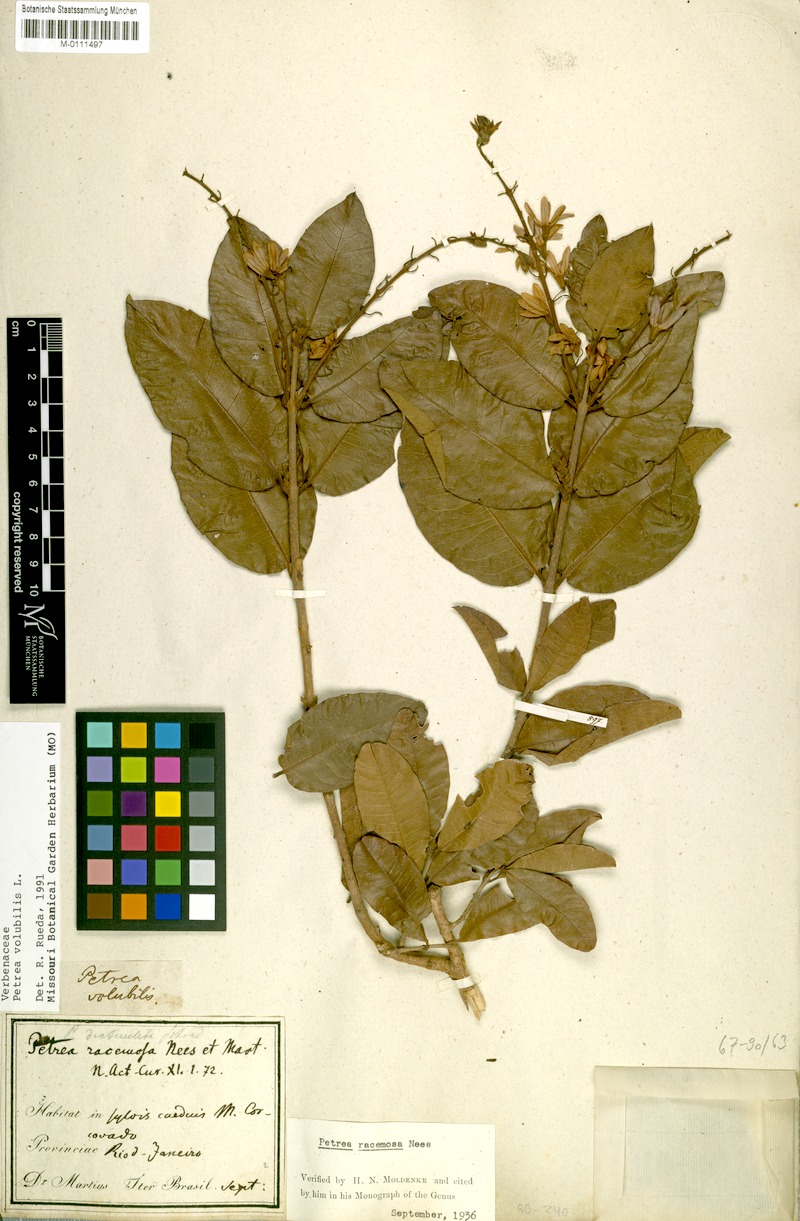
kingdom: Plantae
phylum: Tracheophyta
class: Magnoliopsida
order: Lamiales
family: Verbenaceae
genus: Petrea
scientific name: Petrea volubilis
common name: Queen's-wreath
